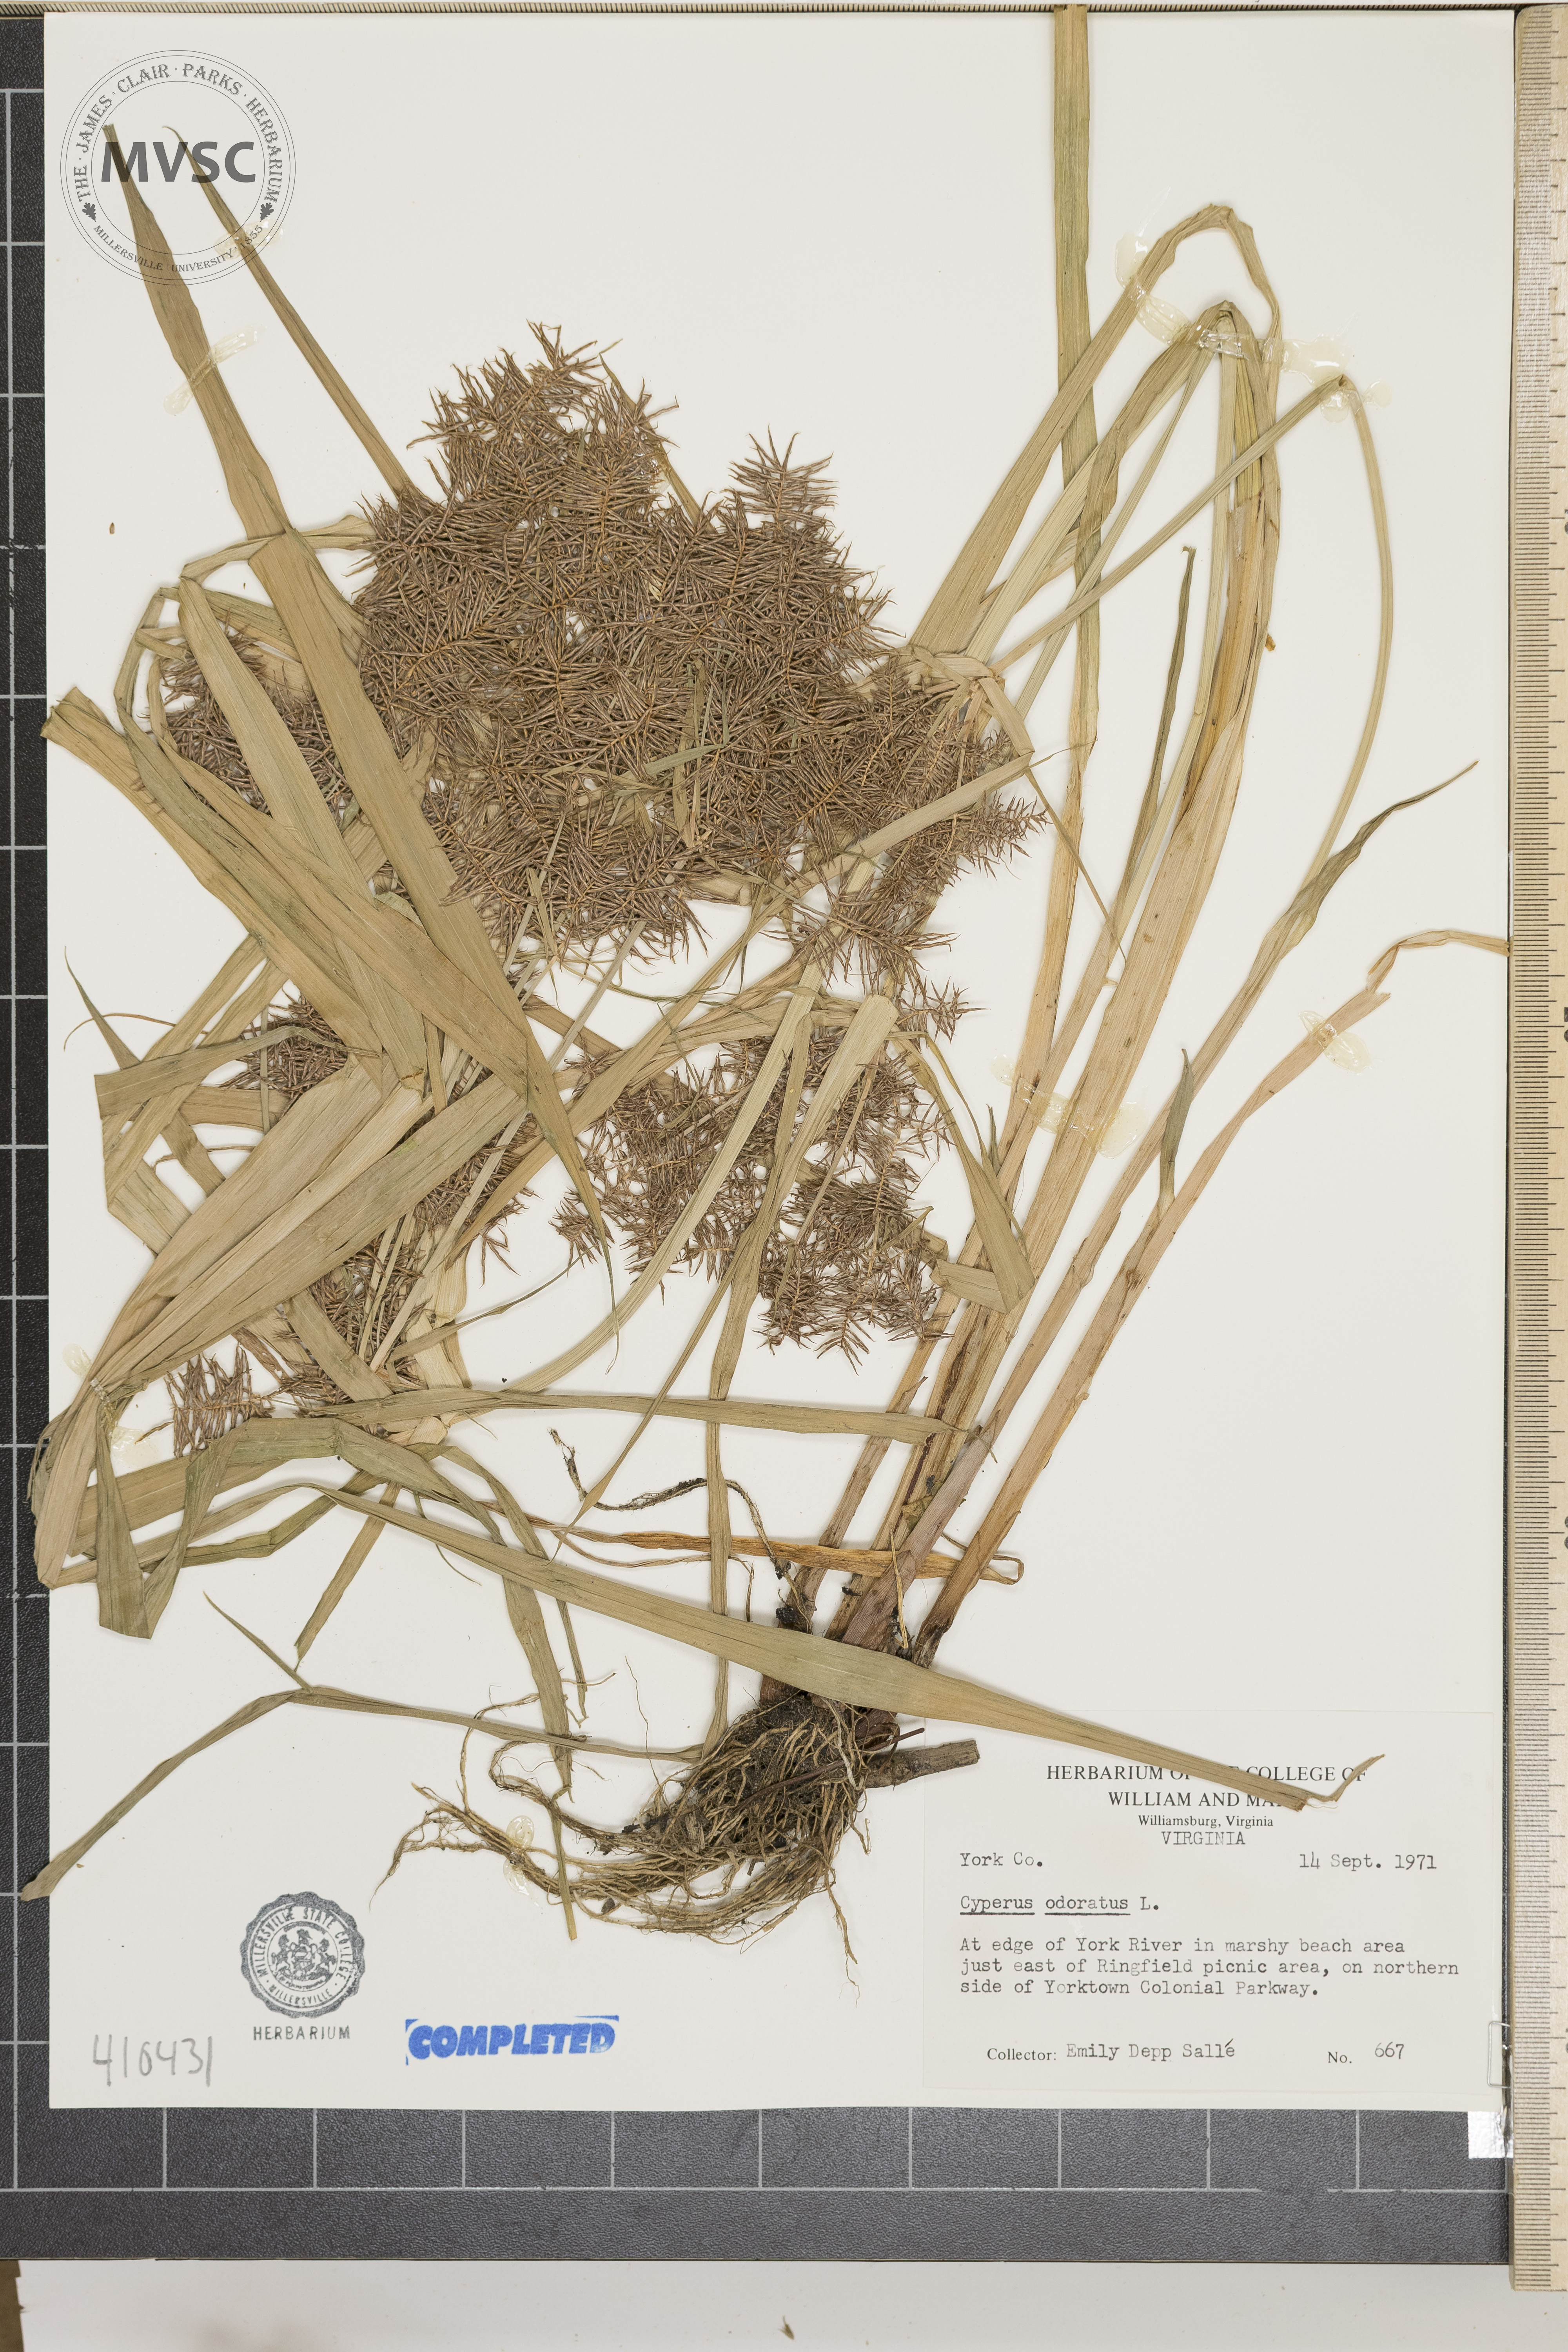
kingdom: Plantae
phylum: Tracheophyta
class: Liliopsida
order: Poales
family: Cyperaceae
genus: Cyperus
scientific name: Cyperus odoratus
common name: Fragrant flatsedge
